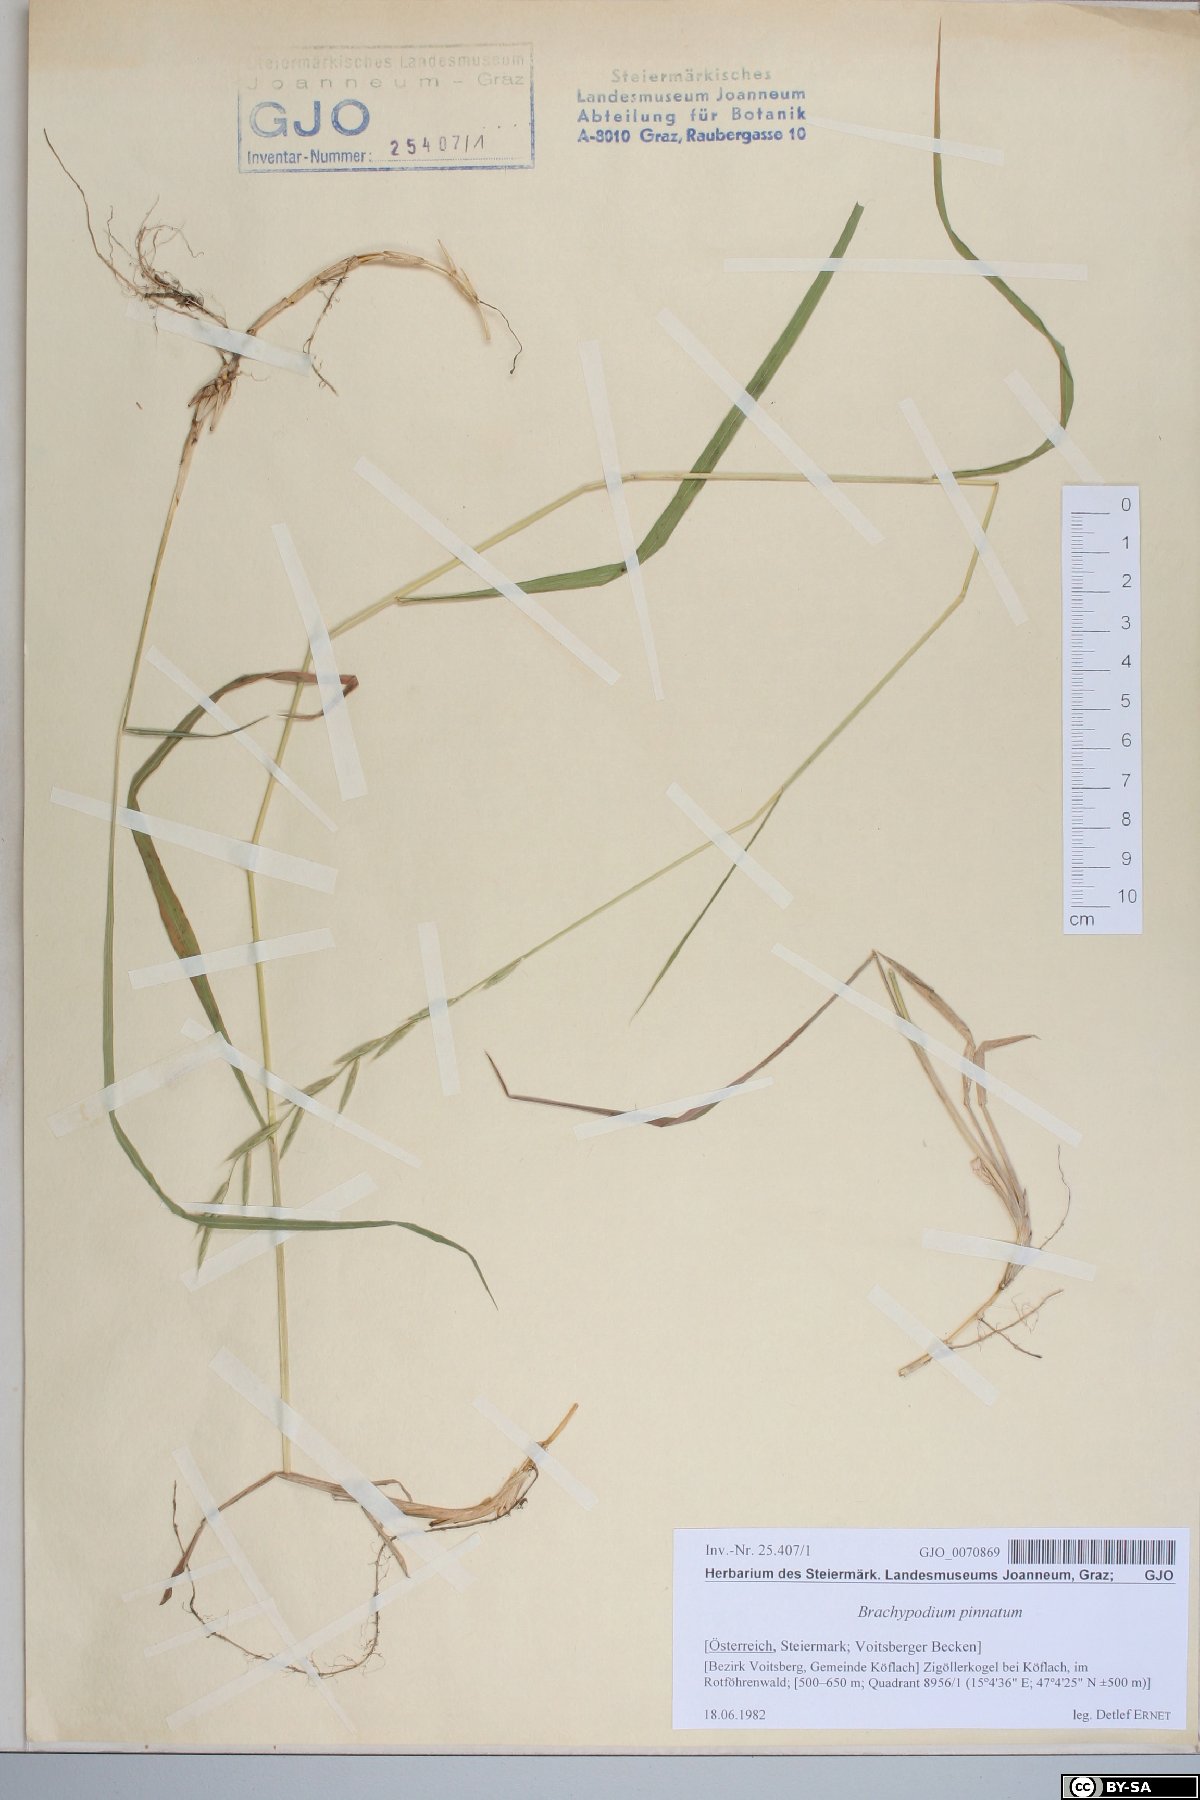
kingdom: Plantae
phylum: Tracheophyta
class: Liliopsida
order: Poales
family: Poaceae
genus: Brachypodium
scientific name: Brachypodium pinnatum
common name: Tor grass
